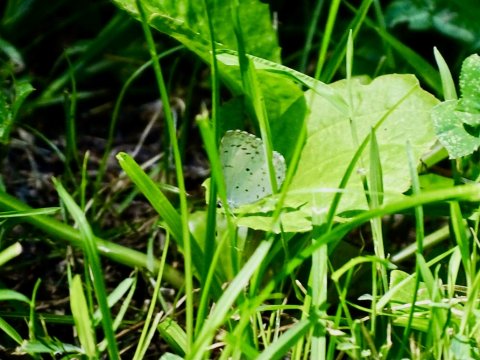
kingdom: Animalia
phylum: Arthropoda
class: Insecta
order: Lepidoptera
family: Lycaenidae
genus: Cyaniris
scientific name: Cyaniris neglecta
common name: Summer Azure
